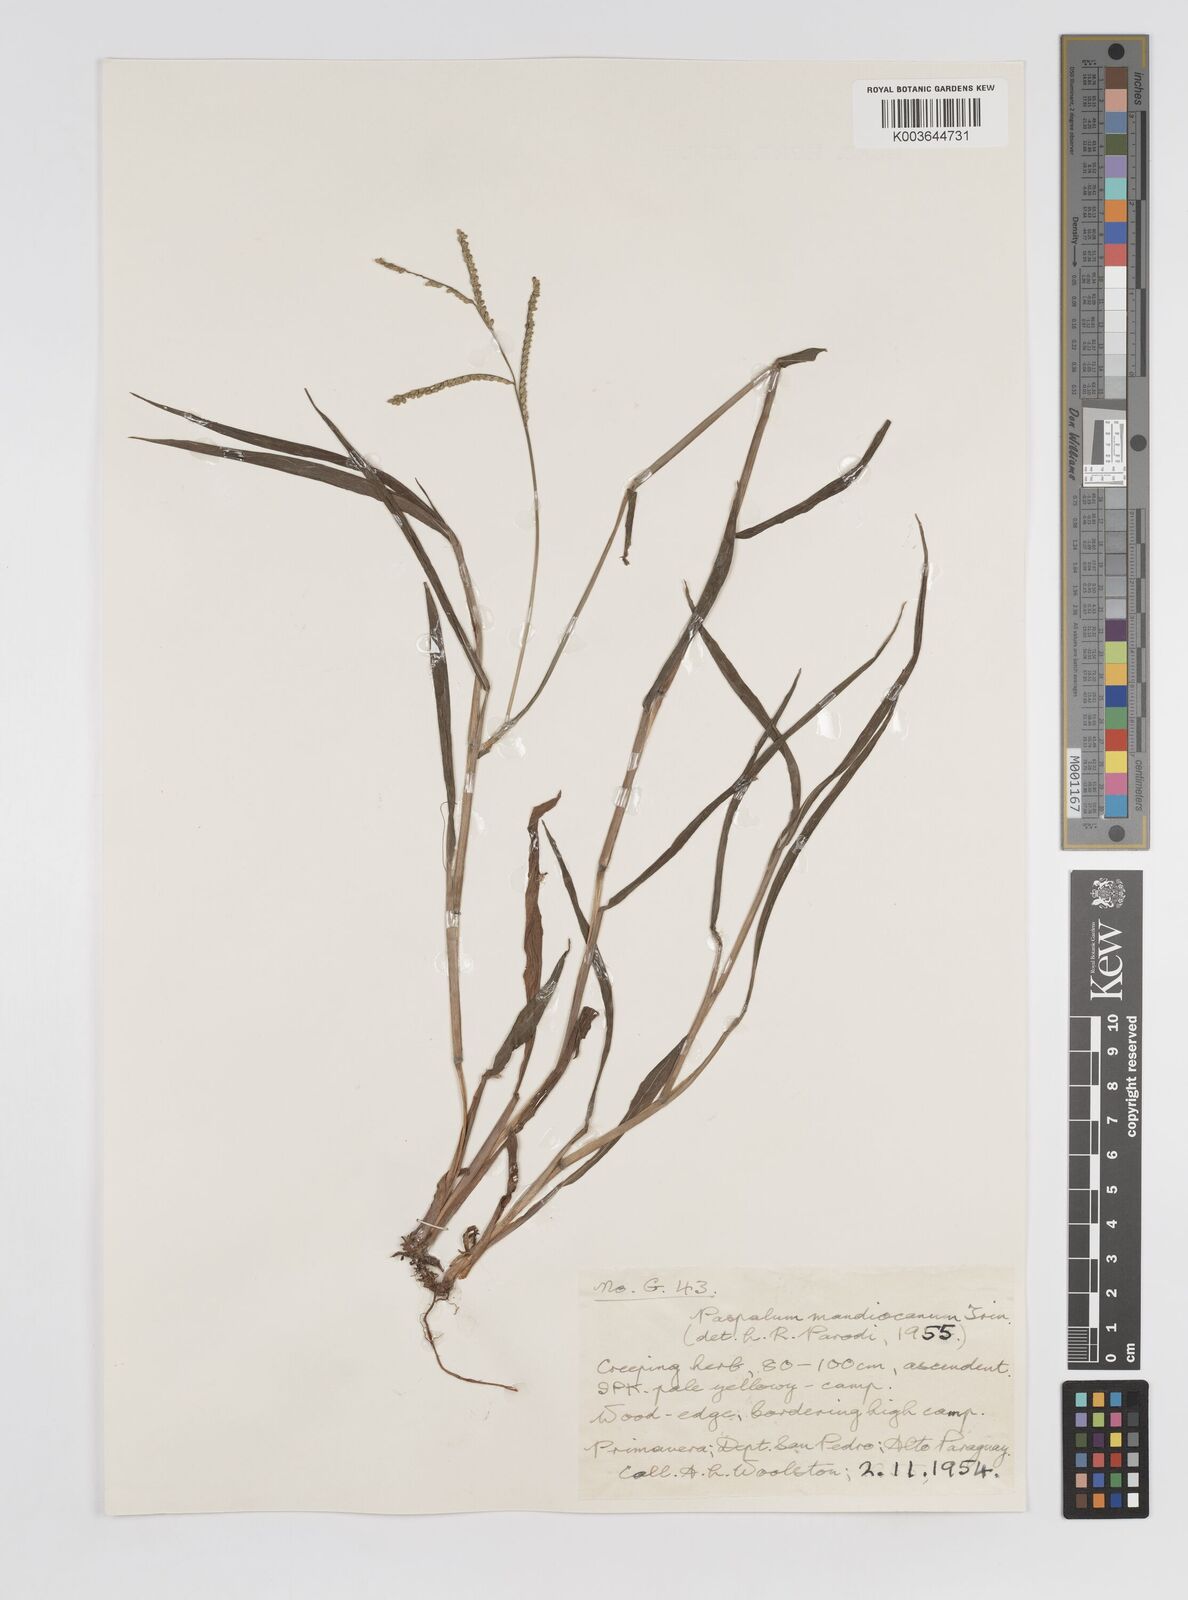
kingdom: Plantae
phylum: Tracheophyta
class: Liliopsida
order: Poales
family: Poaceae
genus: Paspalum
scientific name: Paspalum mandiocanum
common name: Paspalum
